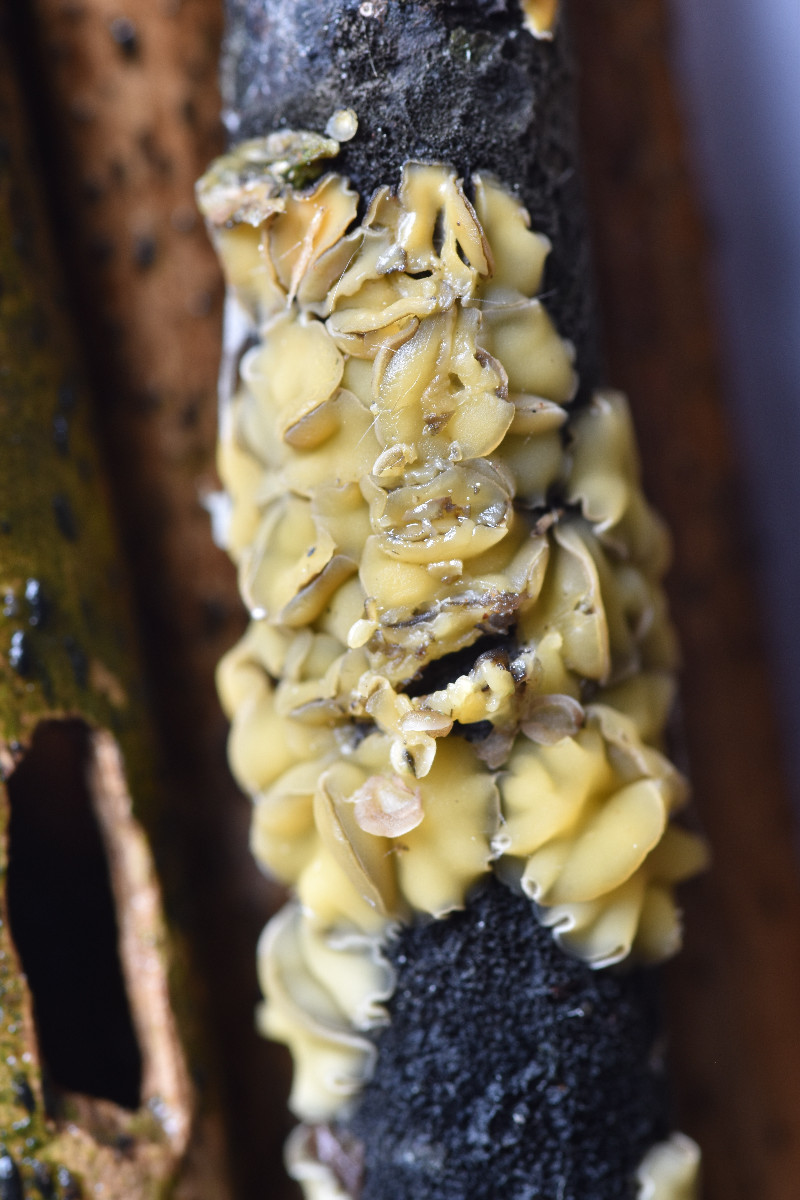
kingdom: Fungi
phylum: Ascomycota
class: Leotiomycetes
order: Helotiales
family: Mollisiaceae
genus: Trichobelonium
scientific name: Trichobelonium kneiffii
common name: tagrør-gråskive
